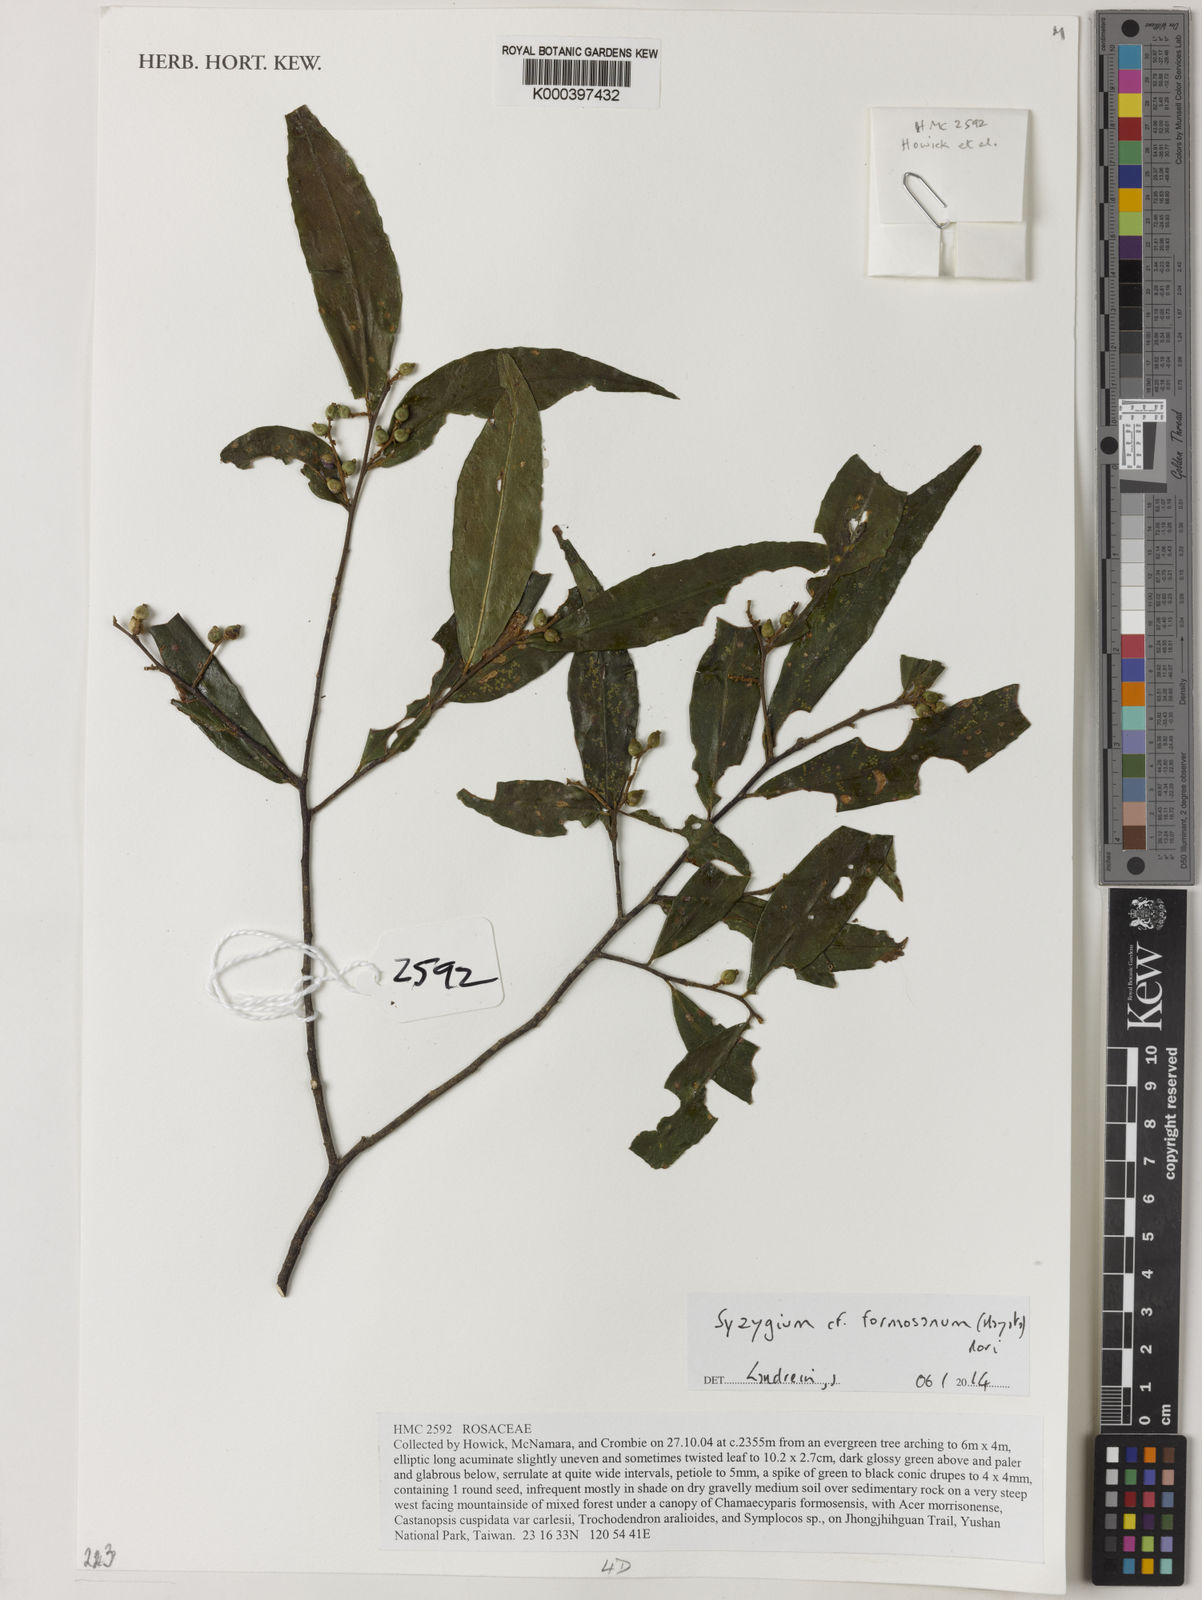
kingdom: Plantae
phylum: Tracheophyta
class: Magnoliopsida
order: Myrtales
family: Myrtaceae
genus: Syzygium
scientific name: Syzygium formosanum
